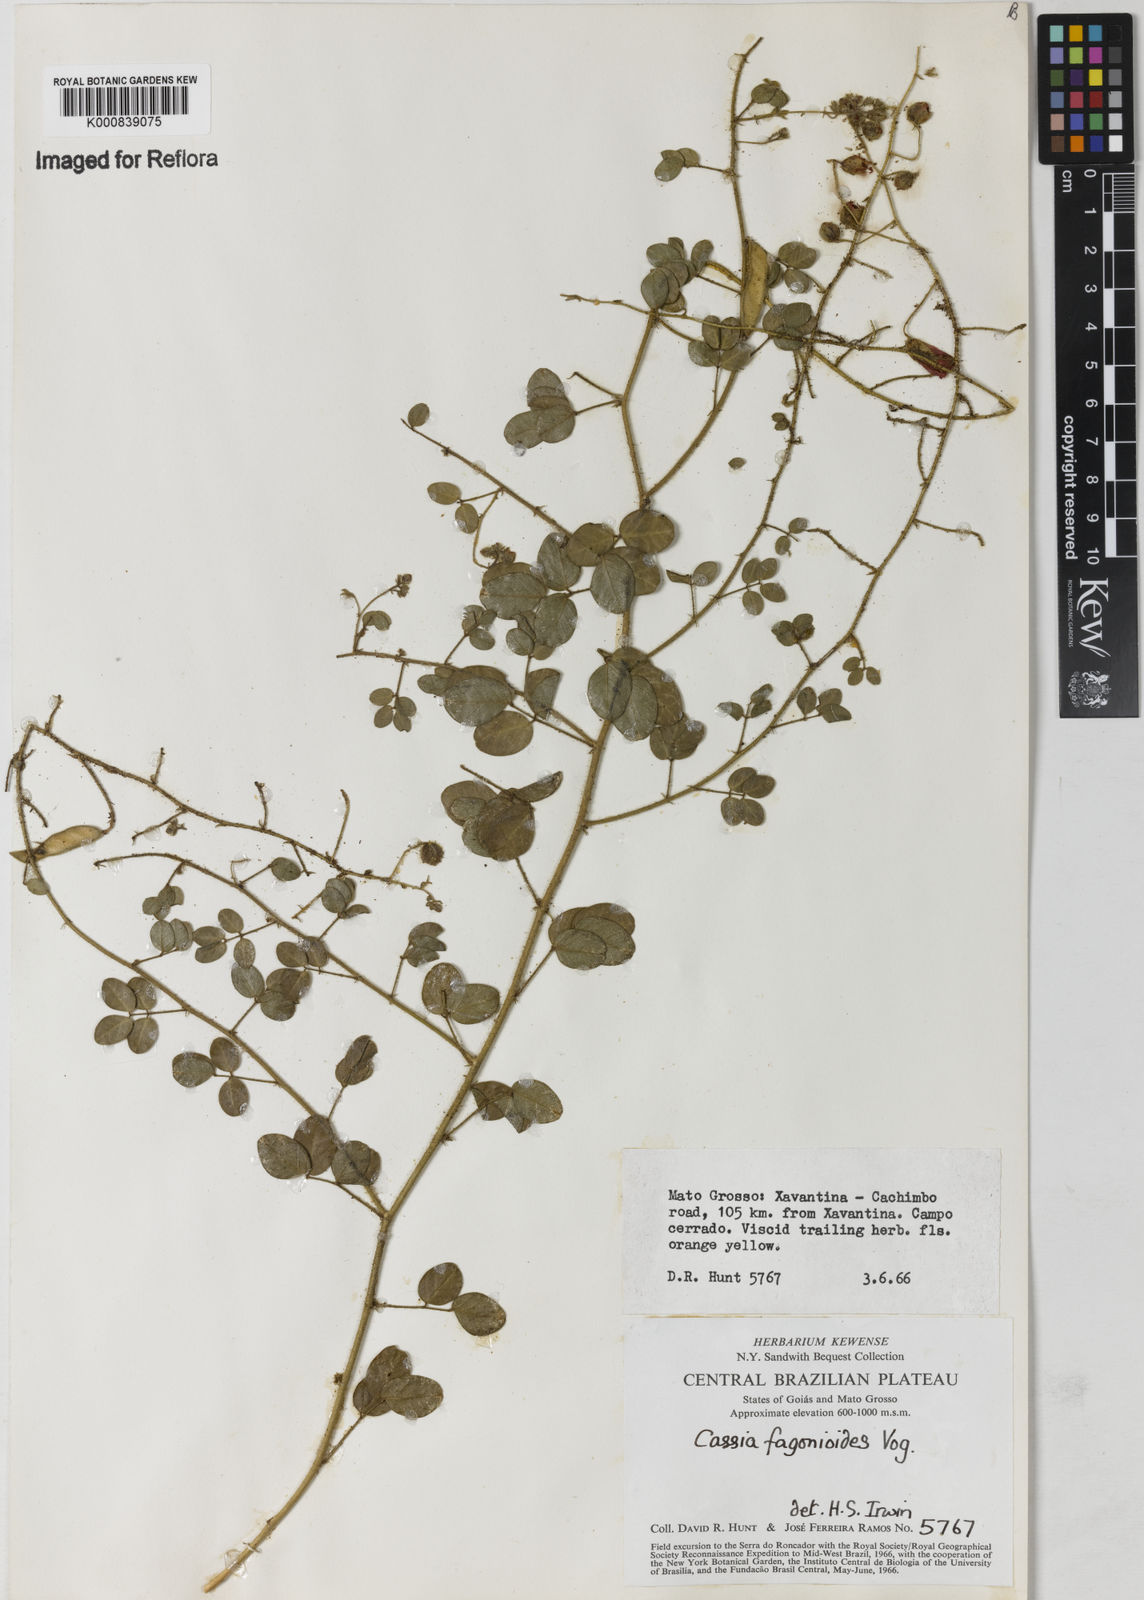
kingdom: Plantae
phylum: Tracheophyta
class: Magnoliopsida
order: Fabales
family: Fabaceae
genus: Chamaecrista
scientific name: Chamaecrista fagonioides
